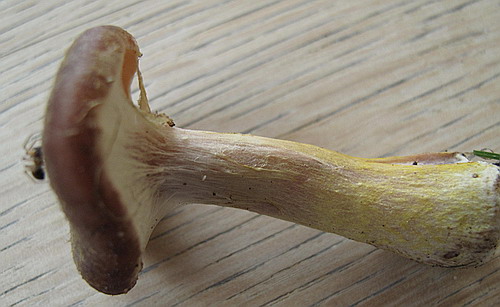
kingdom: Fungi
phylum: Basidiomycota
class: Agaricomycetes
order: Agaricales
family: Physalacriaceae
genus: Armillaria
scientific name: Armillaria lutea
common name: køllestokket honningsvamp
